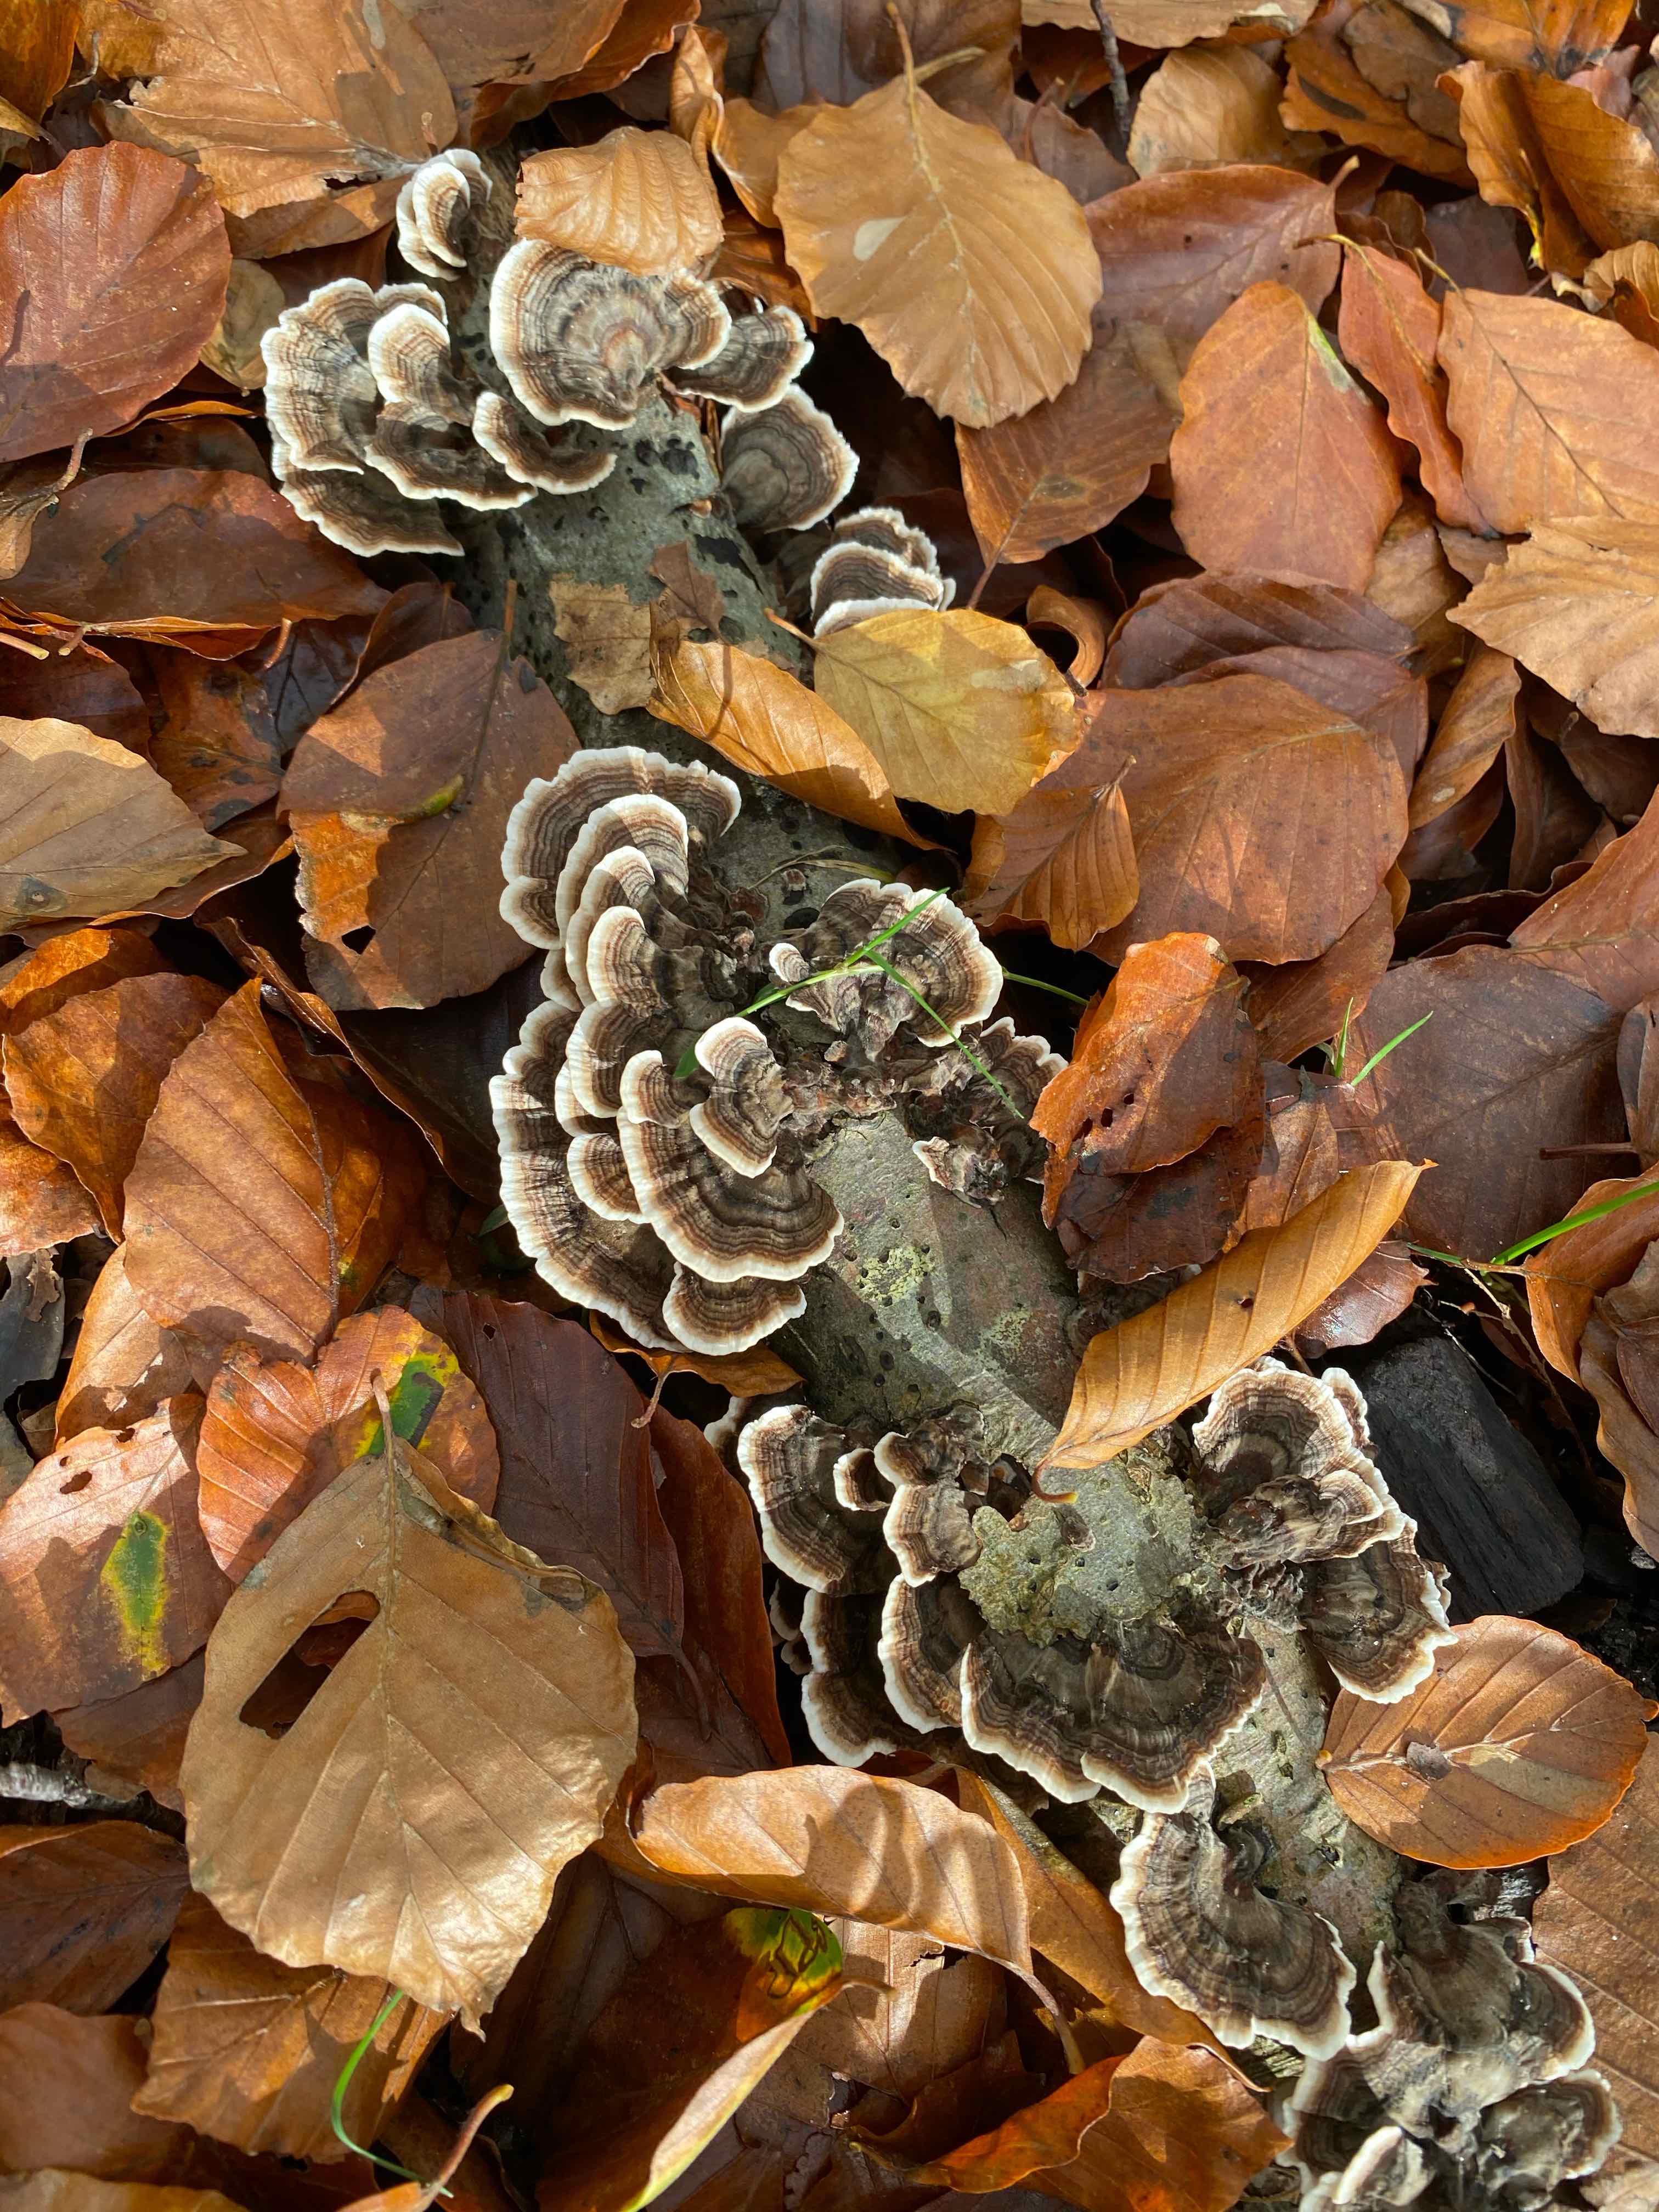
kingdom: Fungi
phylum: Basidiomycota
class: Agaricomycetes
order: Polyporales
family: Polyporaceae
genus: Trametes
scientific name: Trametes versicolor
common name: broget læderporesvamp
